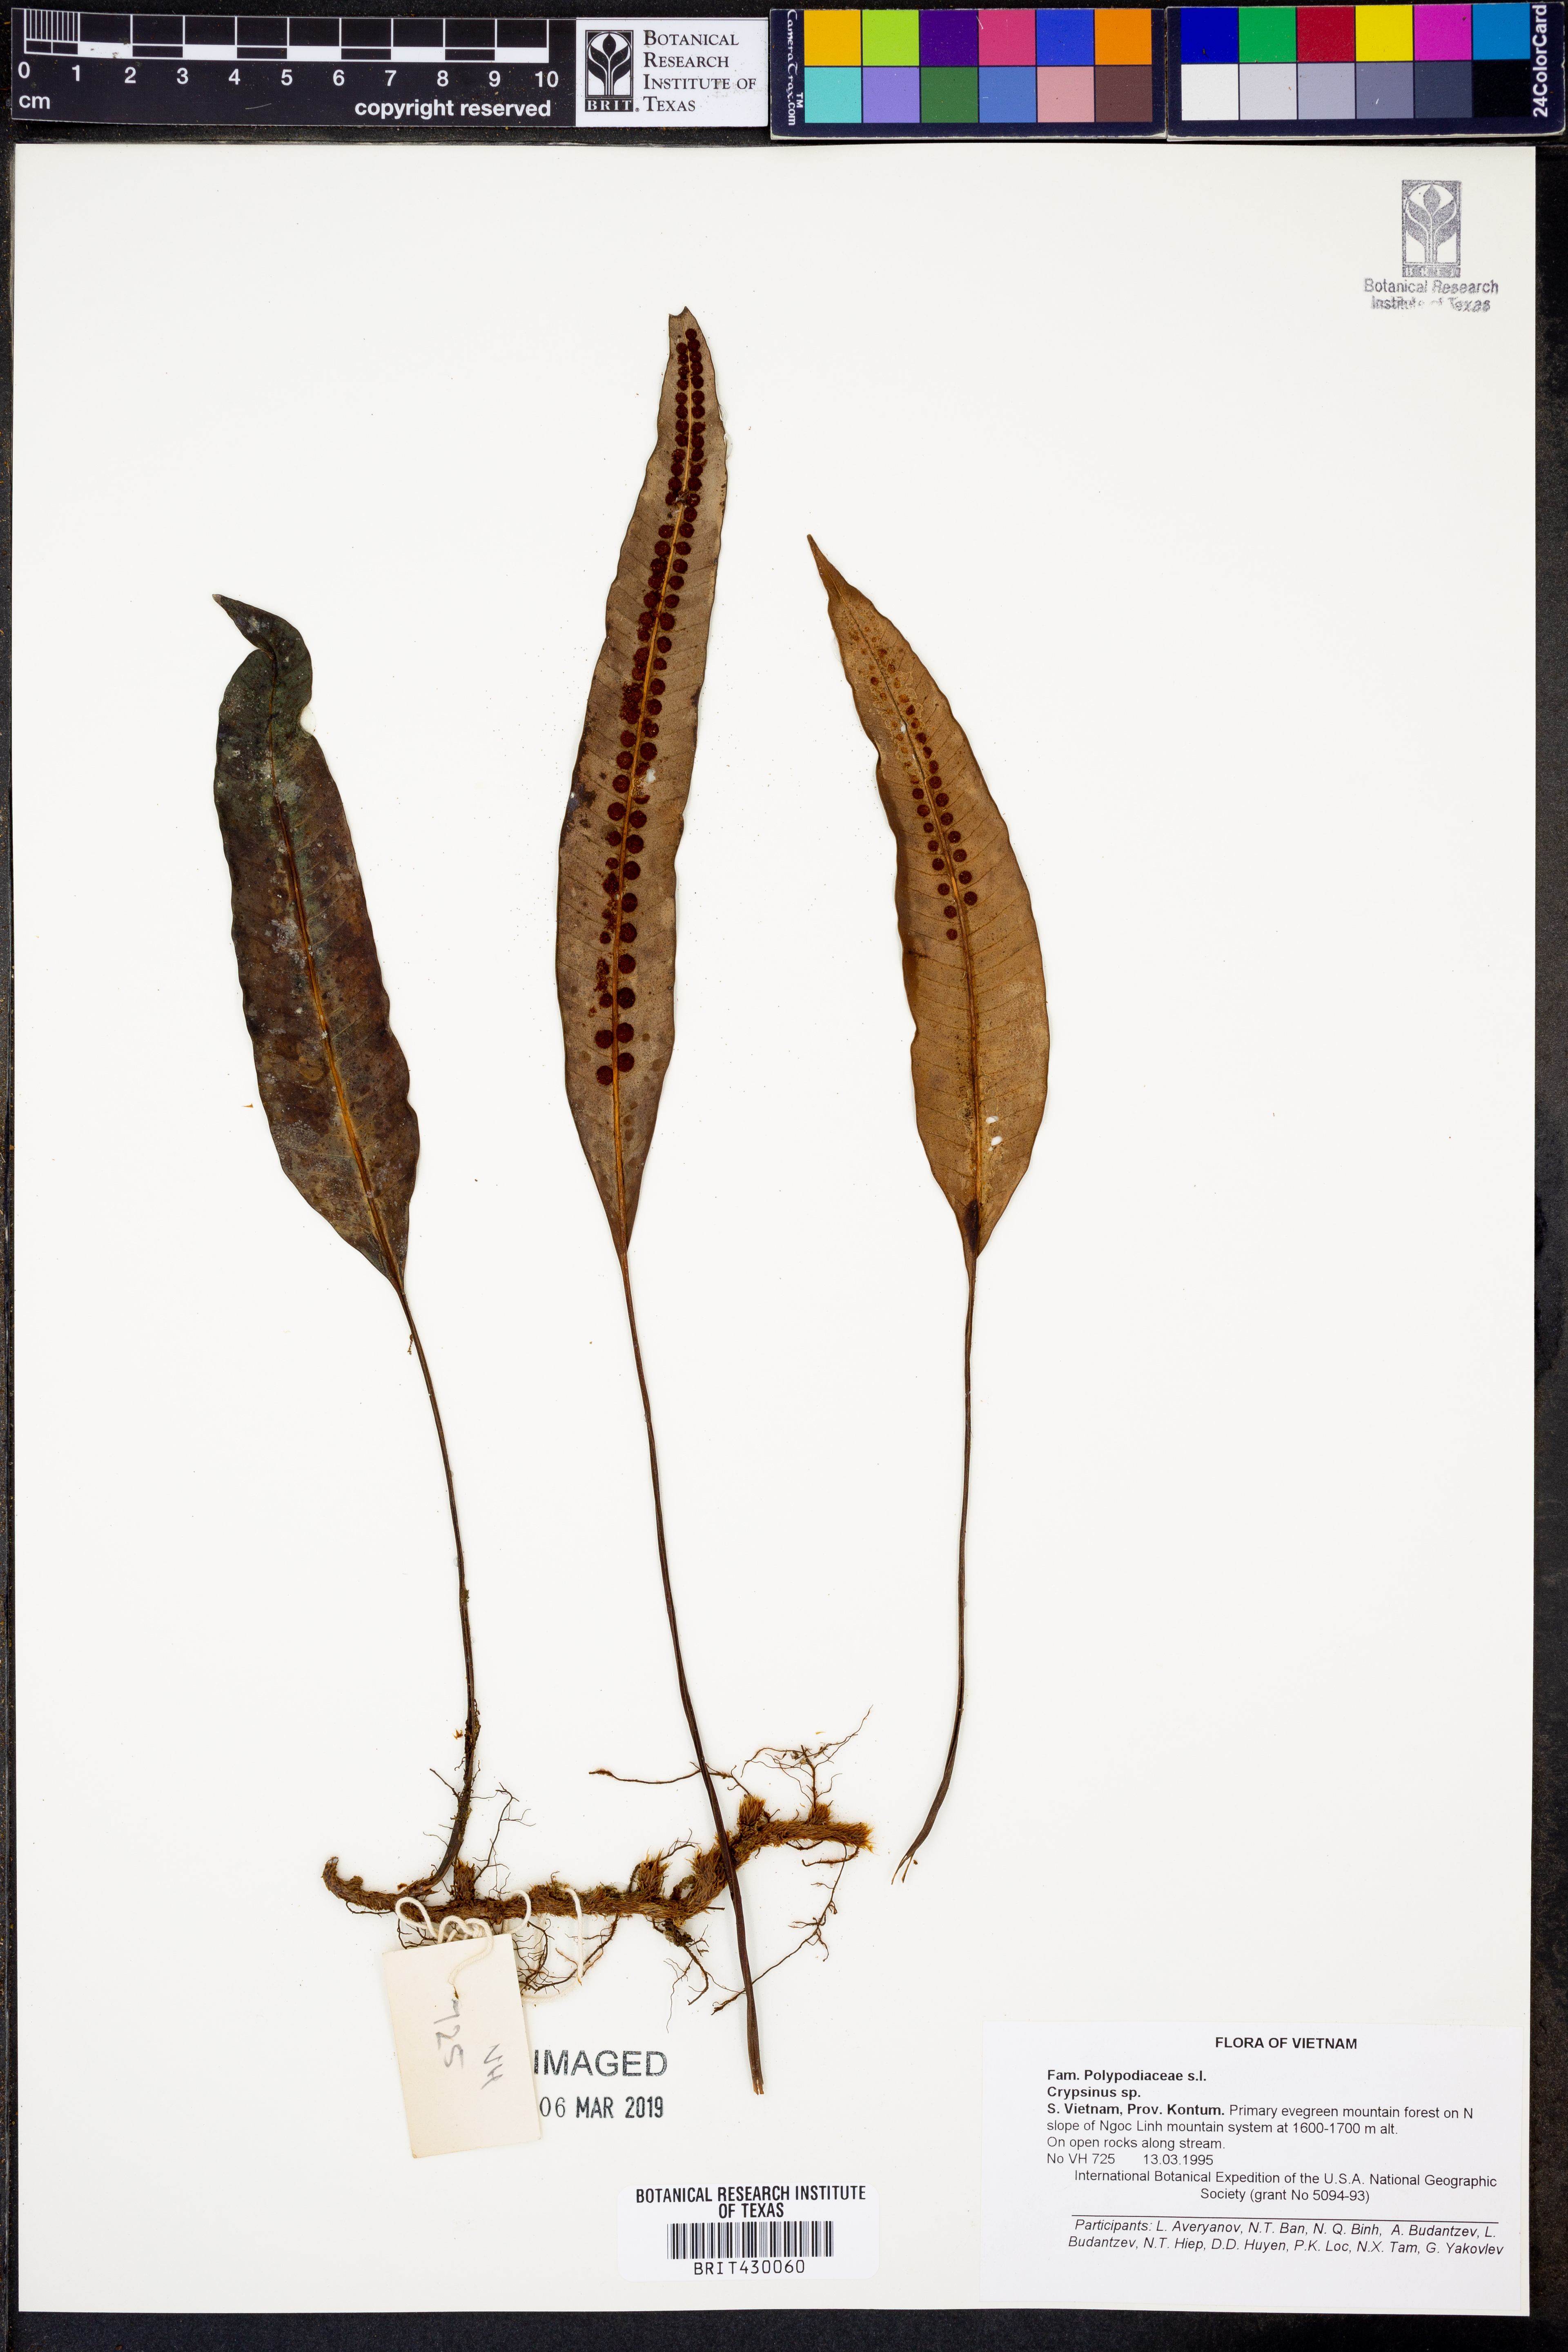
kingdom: Animalia
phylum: Arthropoda
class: Insecta
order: Hemiptera
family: Pentatomidae
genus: Crypsinus
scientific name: Crypsinus
